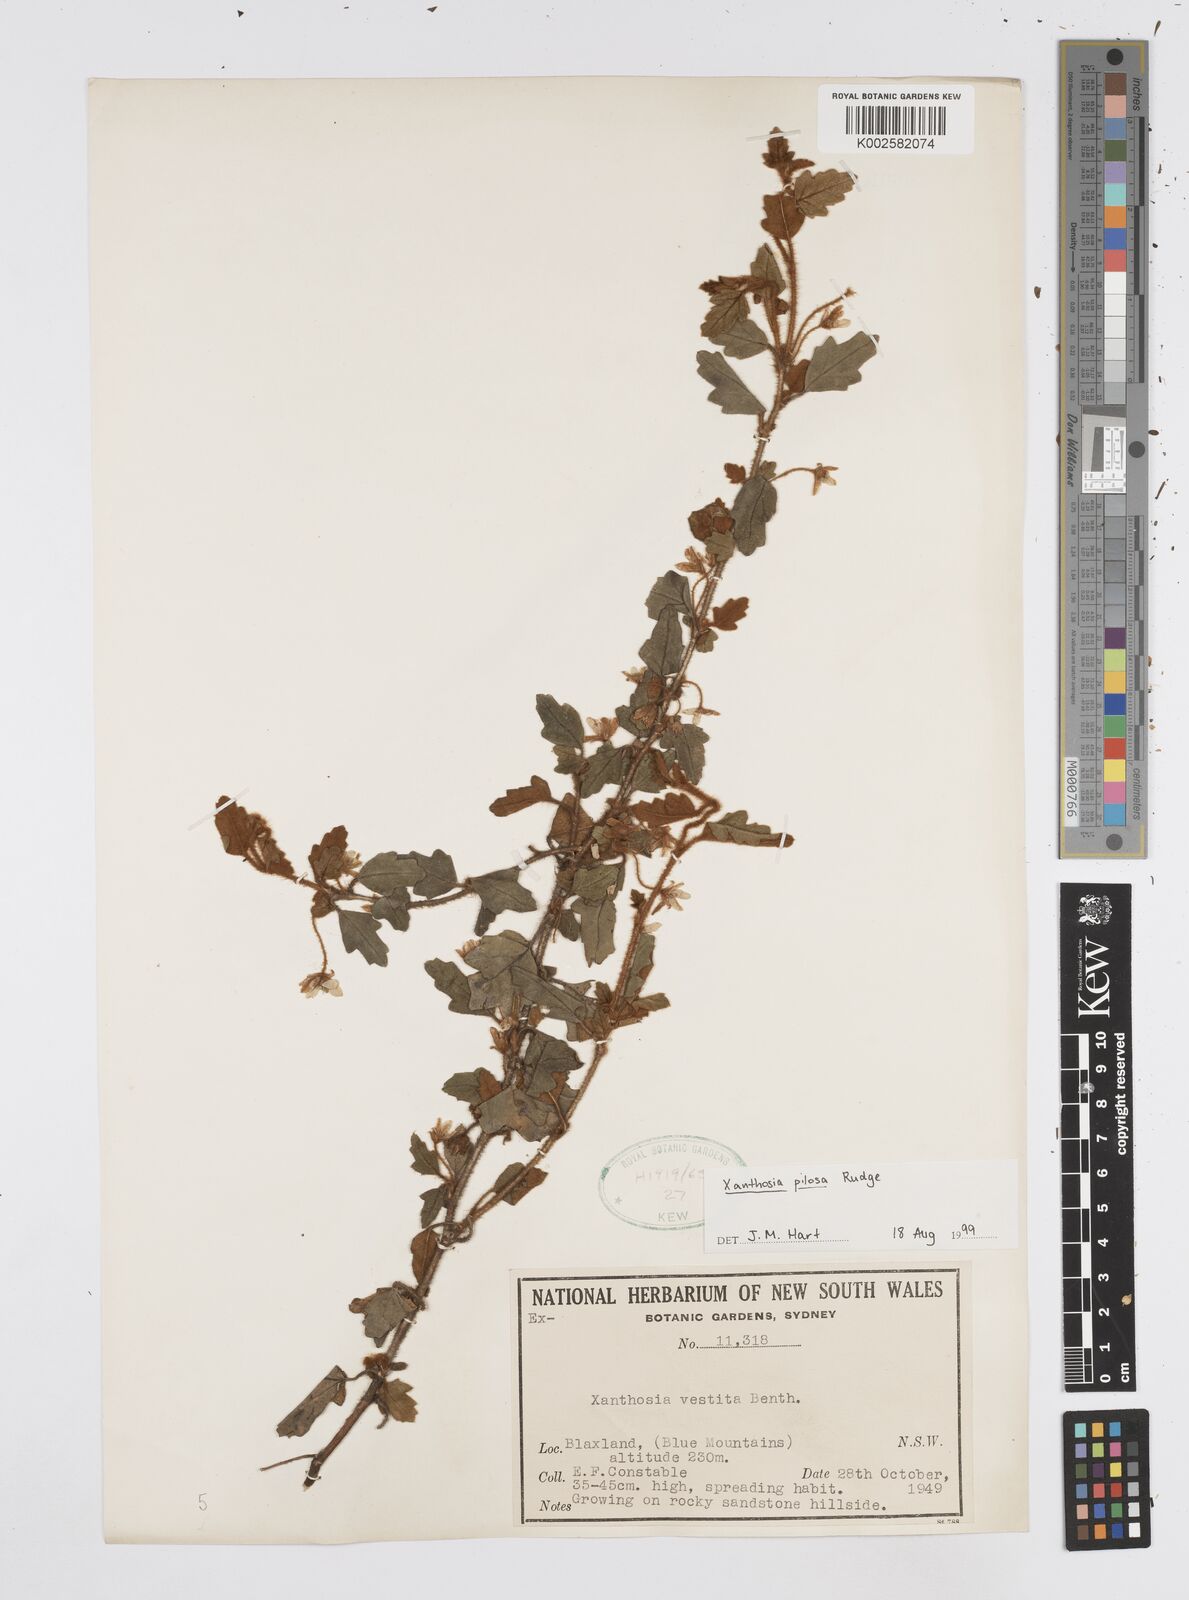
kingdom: Plantae
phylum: Tracheophyta
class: Magnoliopsida
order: Apiales
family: Apiaceae
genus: Xanthosia
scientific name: Xanthosia pilosa
